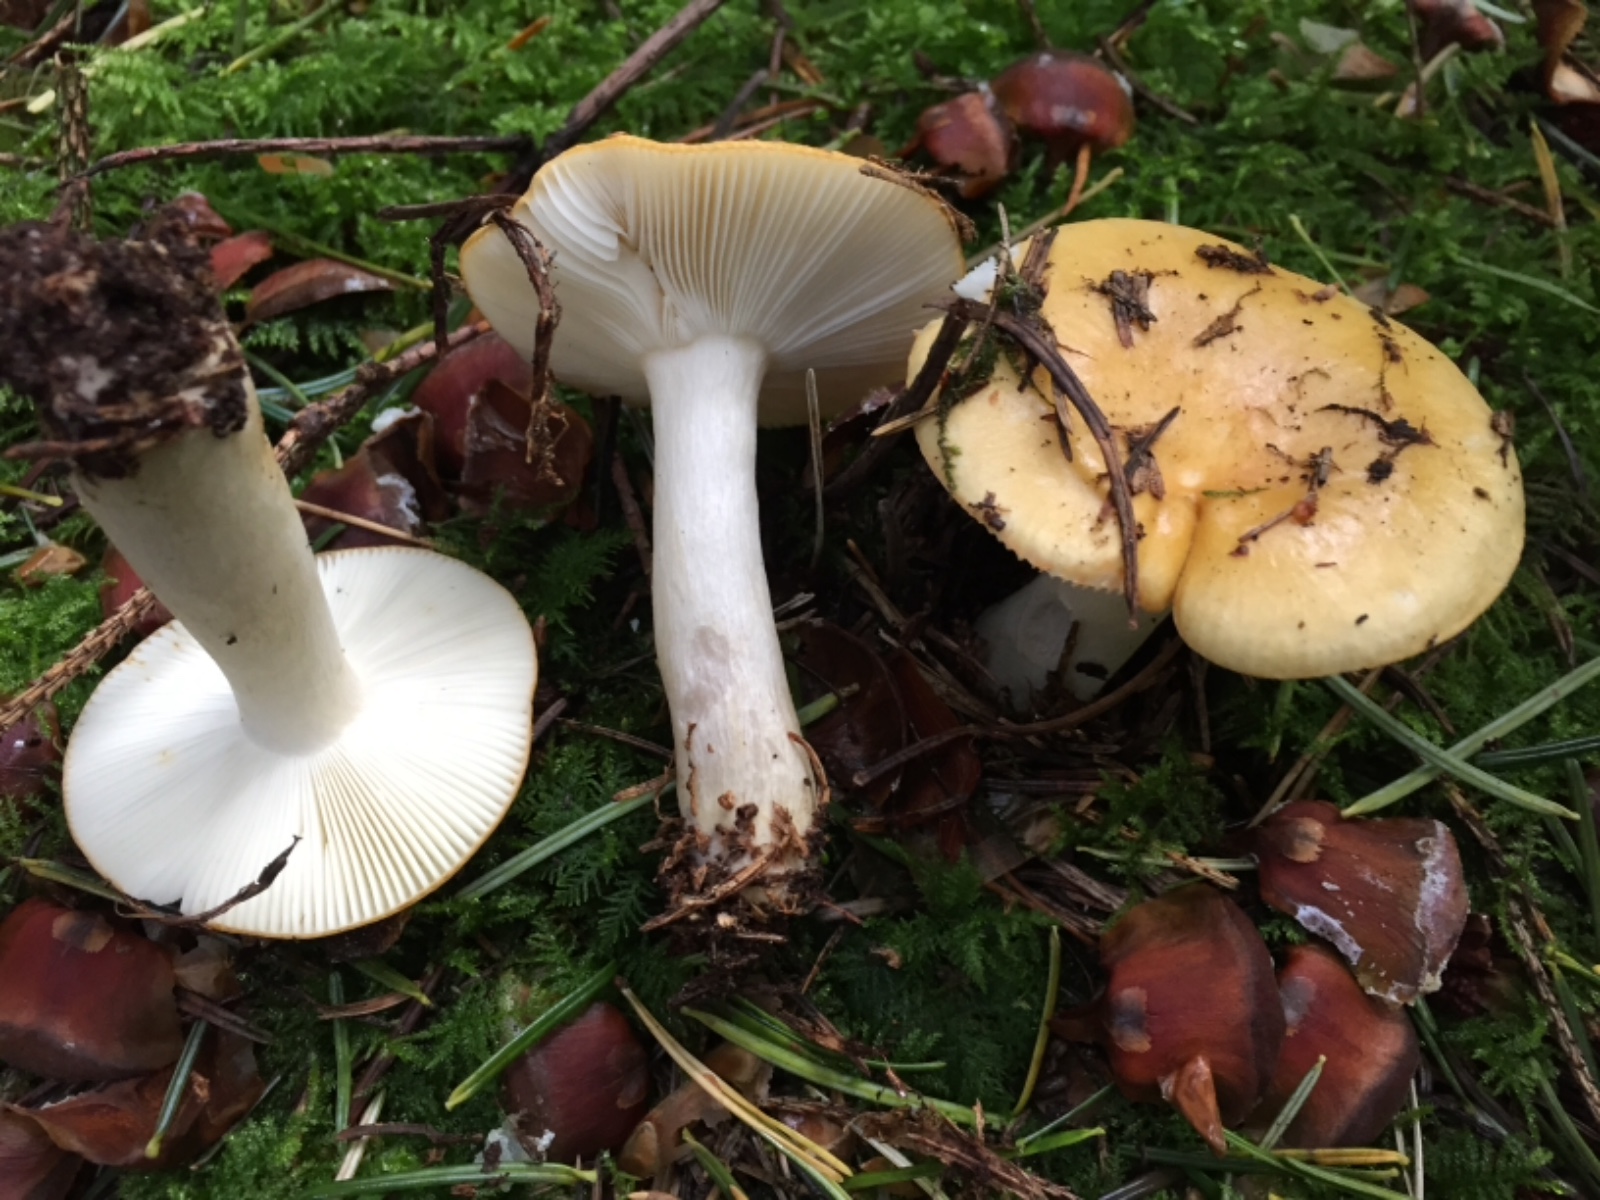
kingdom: Fungi
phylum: Basidiomycota
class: Agaricomycetes
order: Russulales
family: Russulaceae
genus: Russula
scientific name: Russula ochroleuca
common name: okkergul skørhat
